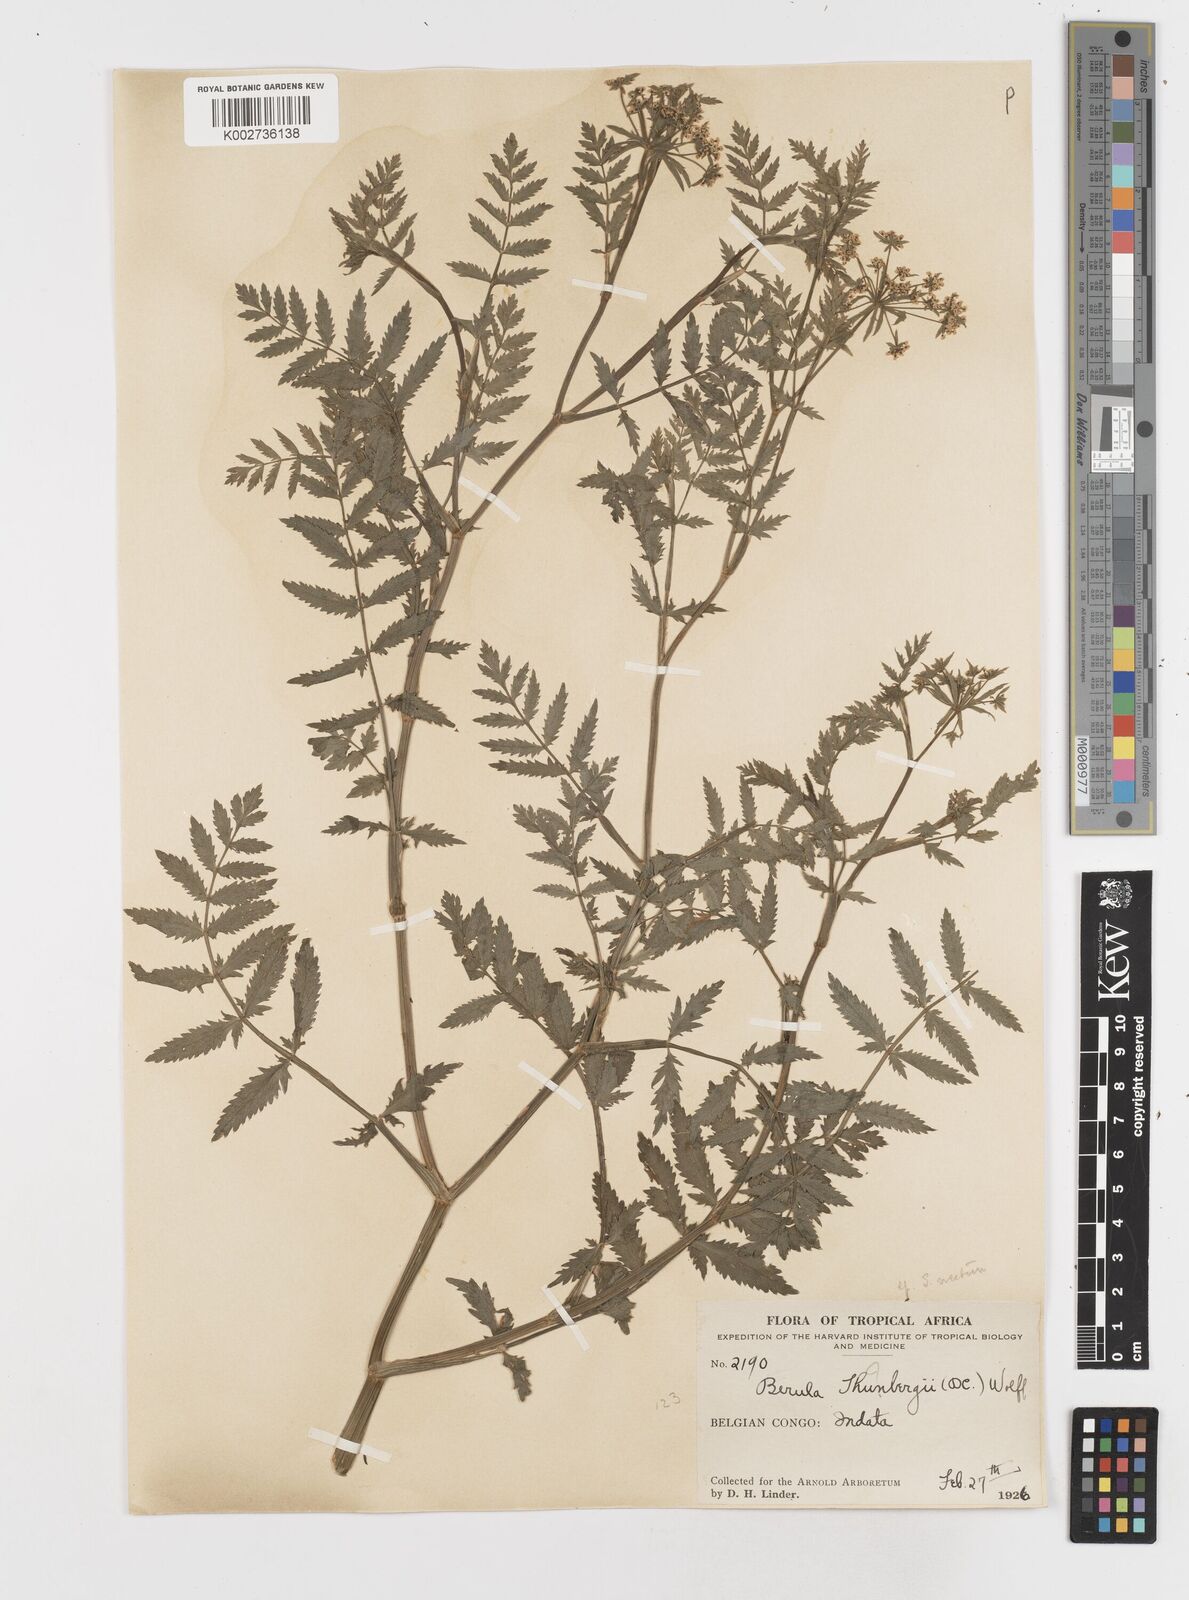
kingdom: Plantae
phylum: Tracheophyta
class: Magnoliopsida
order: Apiales
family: Apiaceae
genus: Berula
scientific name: Berula erecta
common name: Lesser water-parsnip
